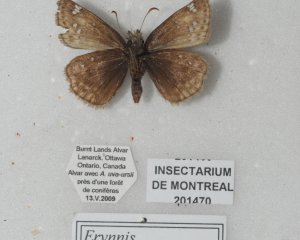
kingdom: Animalia
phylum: Arthropoda
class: Insecta
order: Lepidoptera
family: Hesperiidae
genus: Gesta
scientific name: Gesta
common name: Columbine Duskywing
